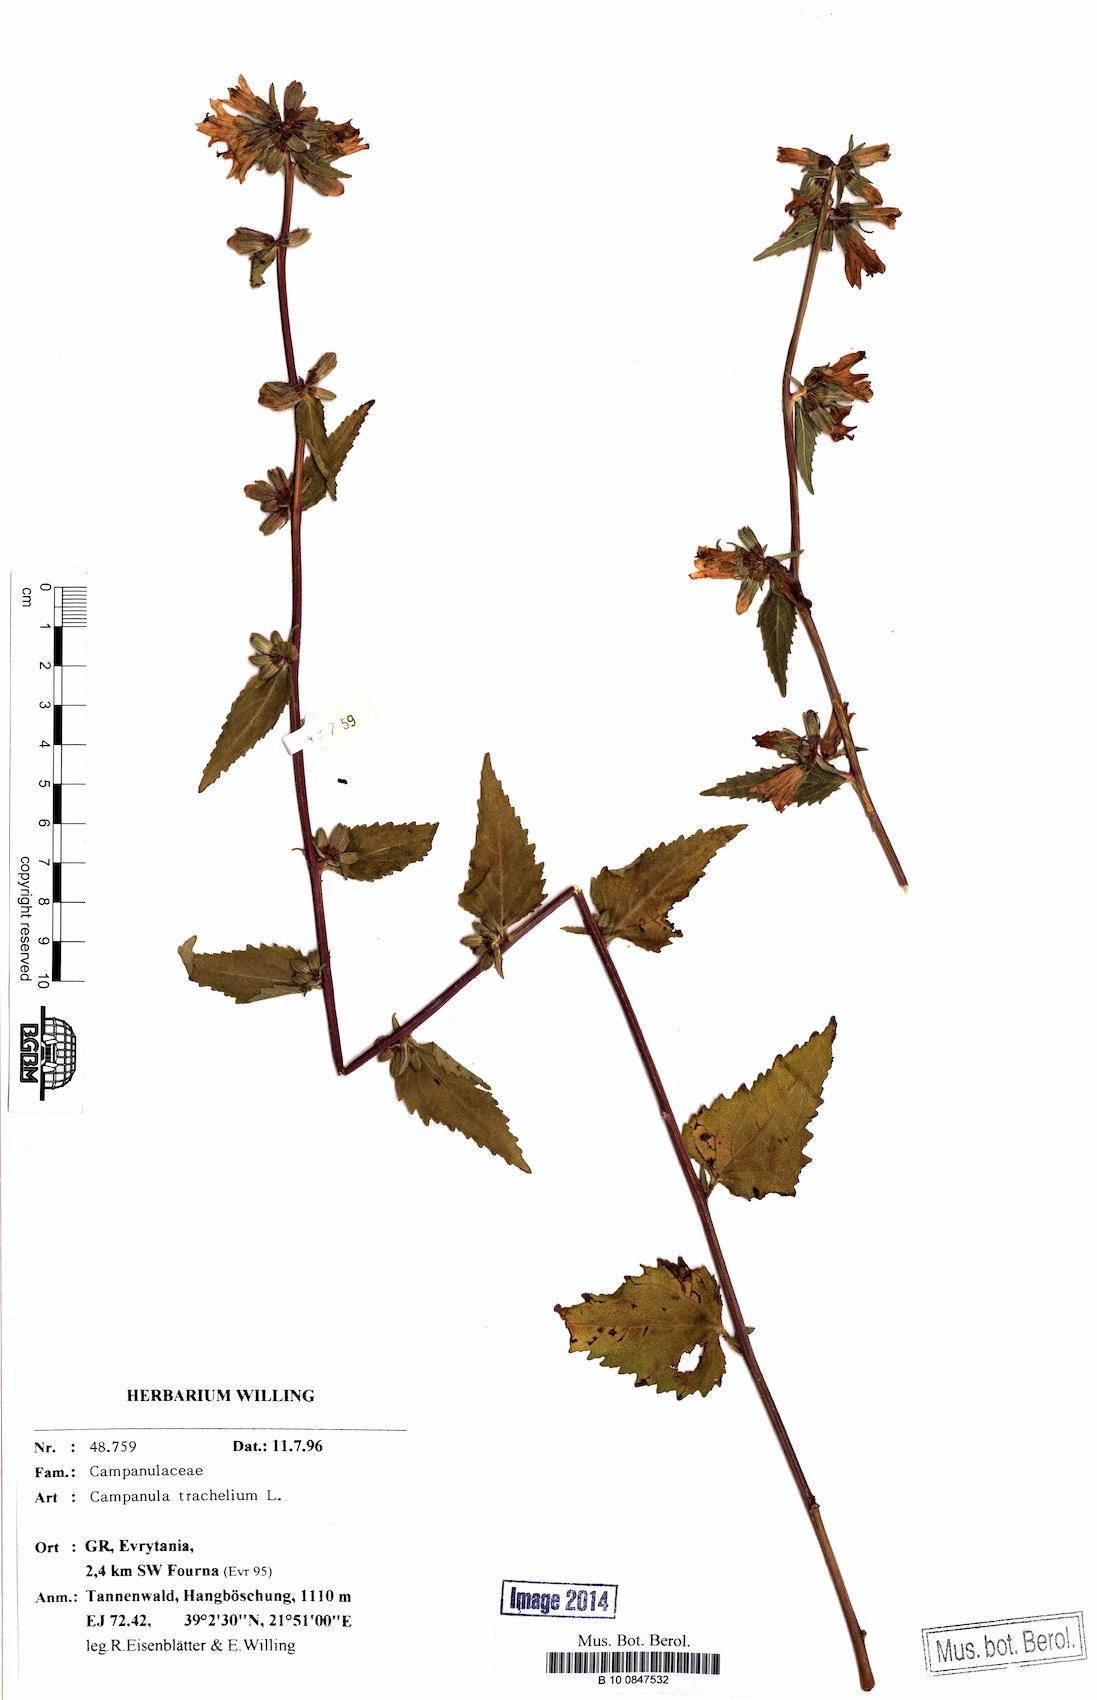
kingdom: Plantae
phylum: Tracheophyta
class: Magnoliopsida
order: Asterales
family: Campanulaceae
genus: Campanula
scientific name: Campanula trachelium
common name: Nettle-leaved bellflower
